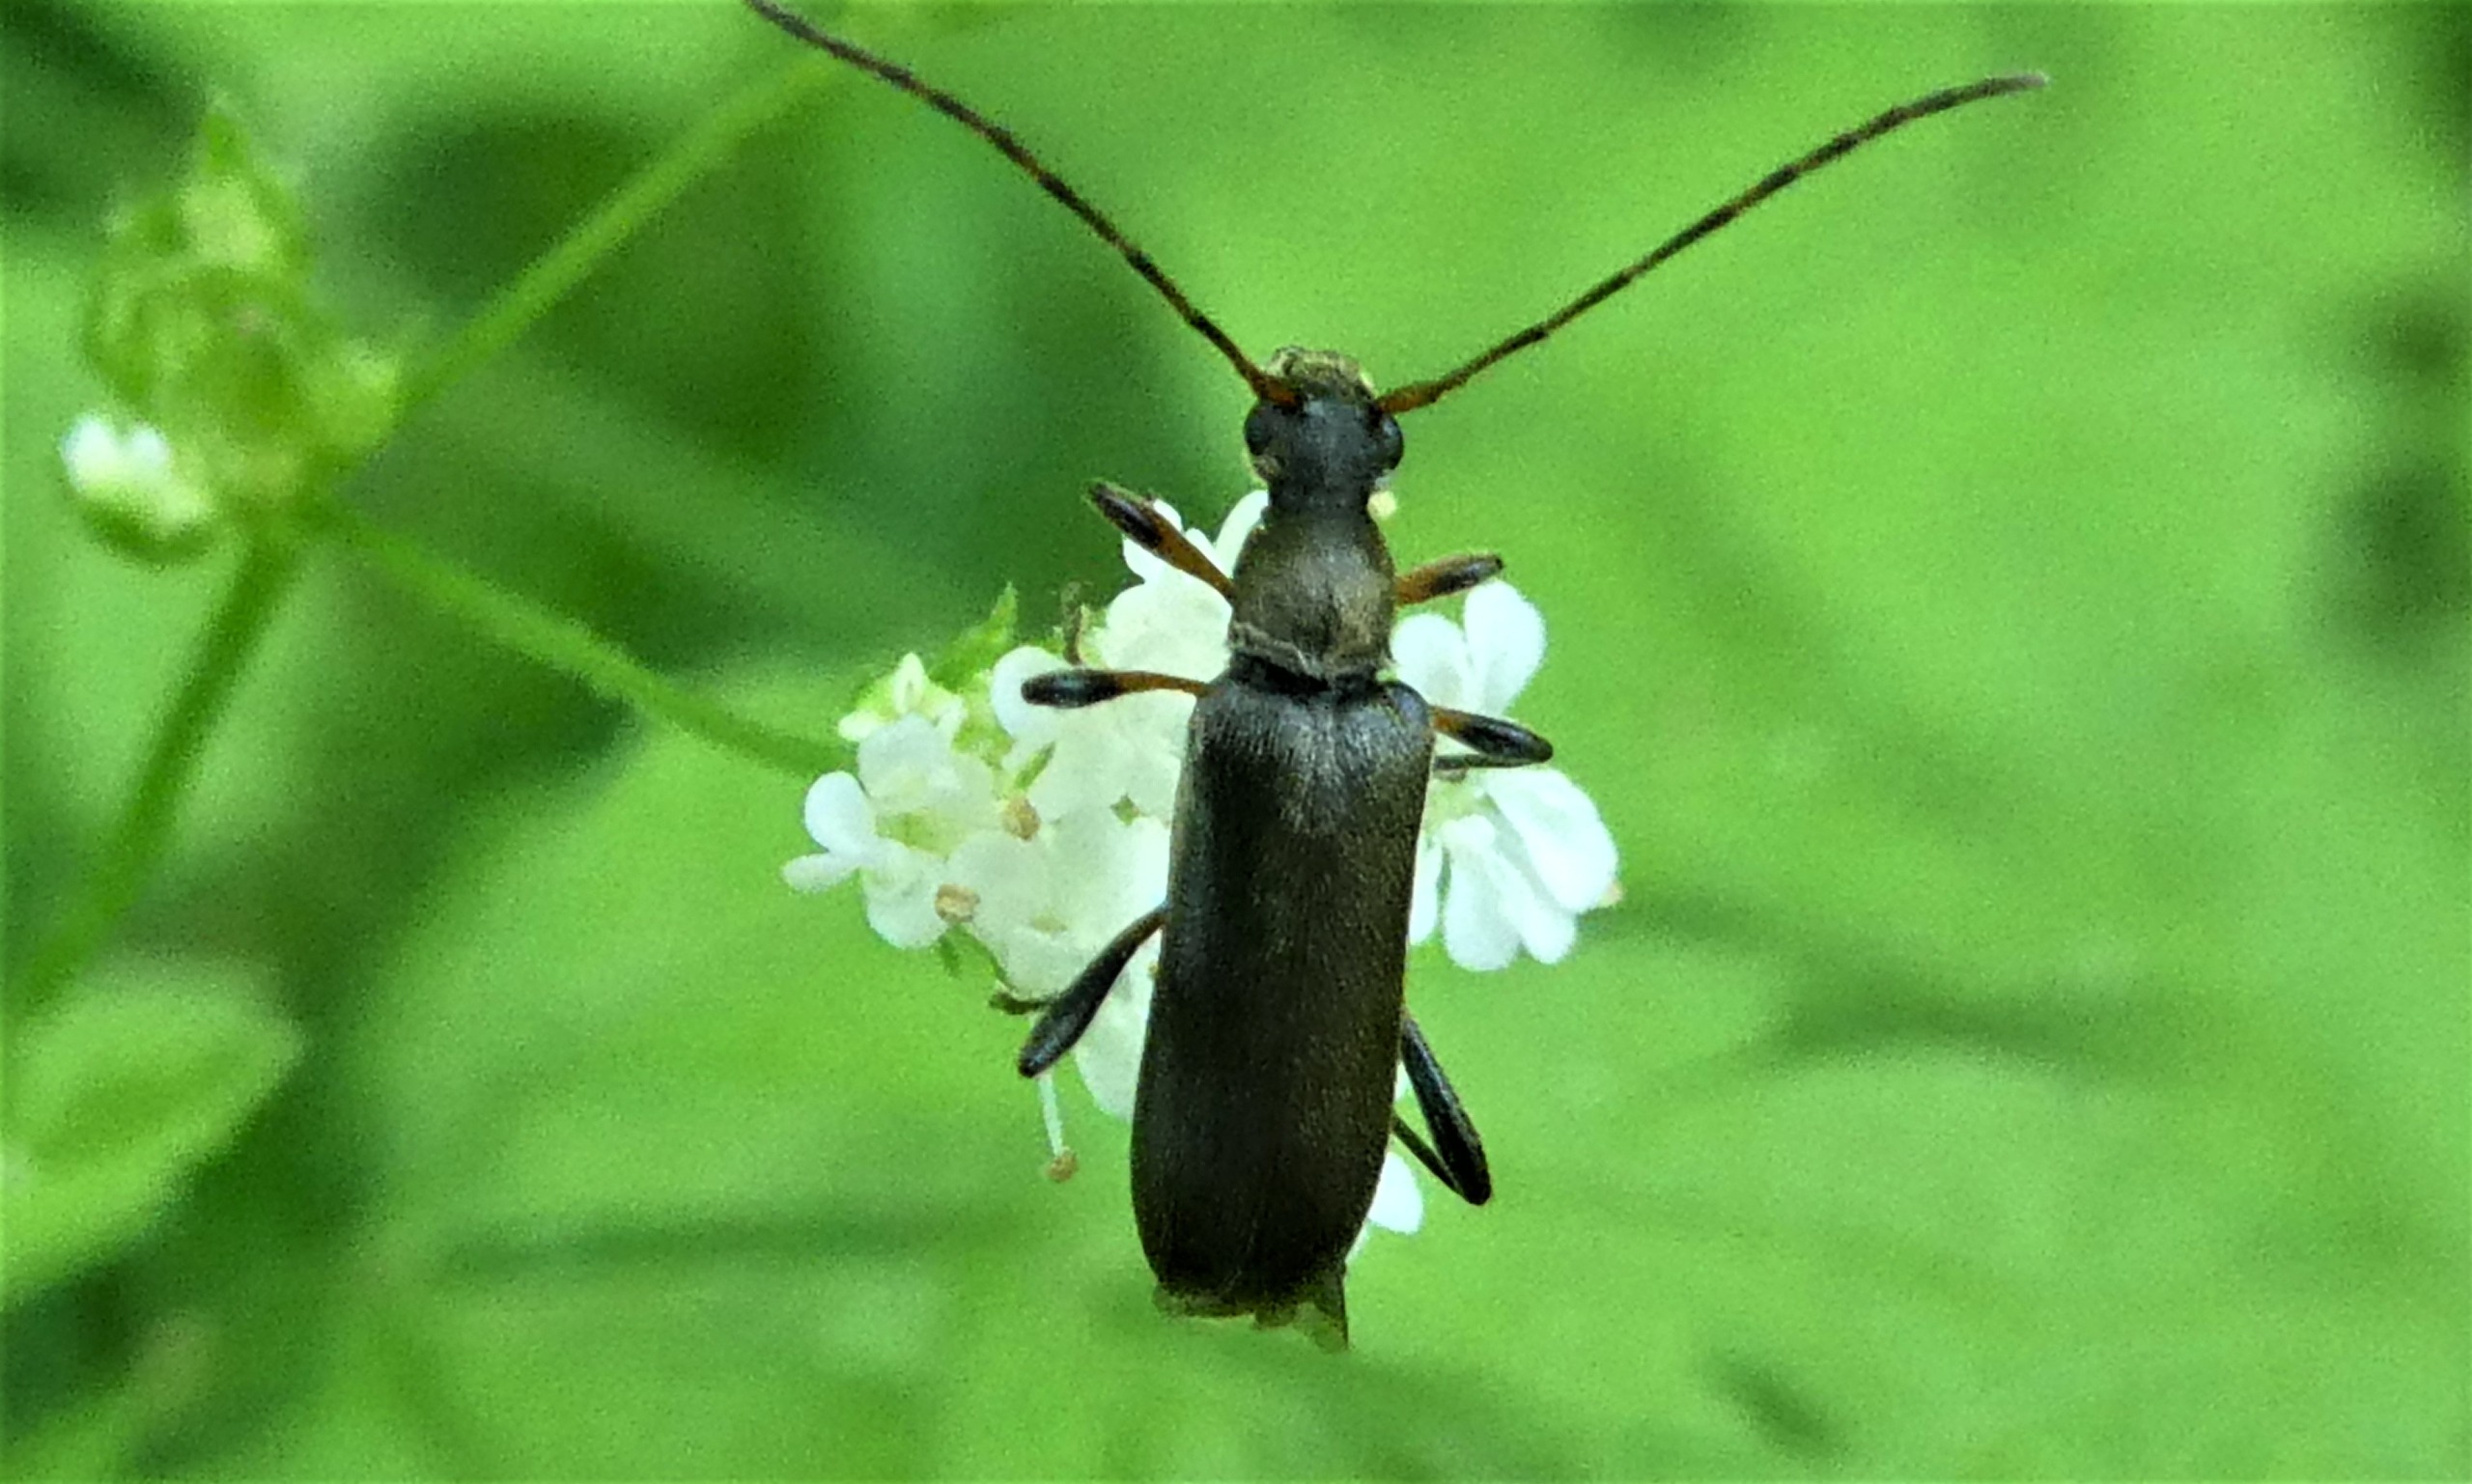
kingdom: Animalia
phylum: Arthropoda
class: Insecta
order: Coleoptera
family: Cerambycidae
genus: Grammoptera
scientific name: Grammoptera ruficornis
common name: Lille blomsterbuk
